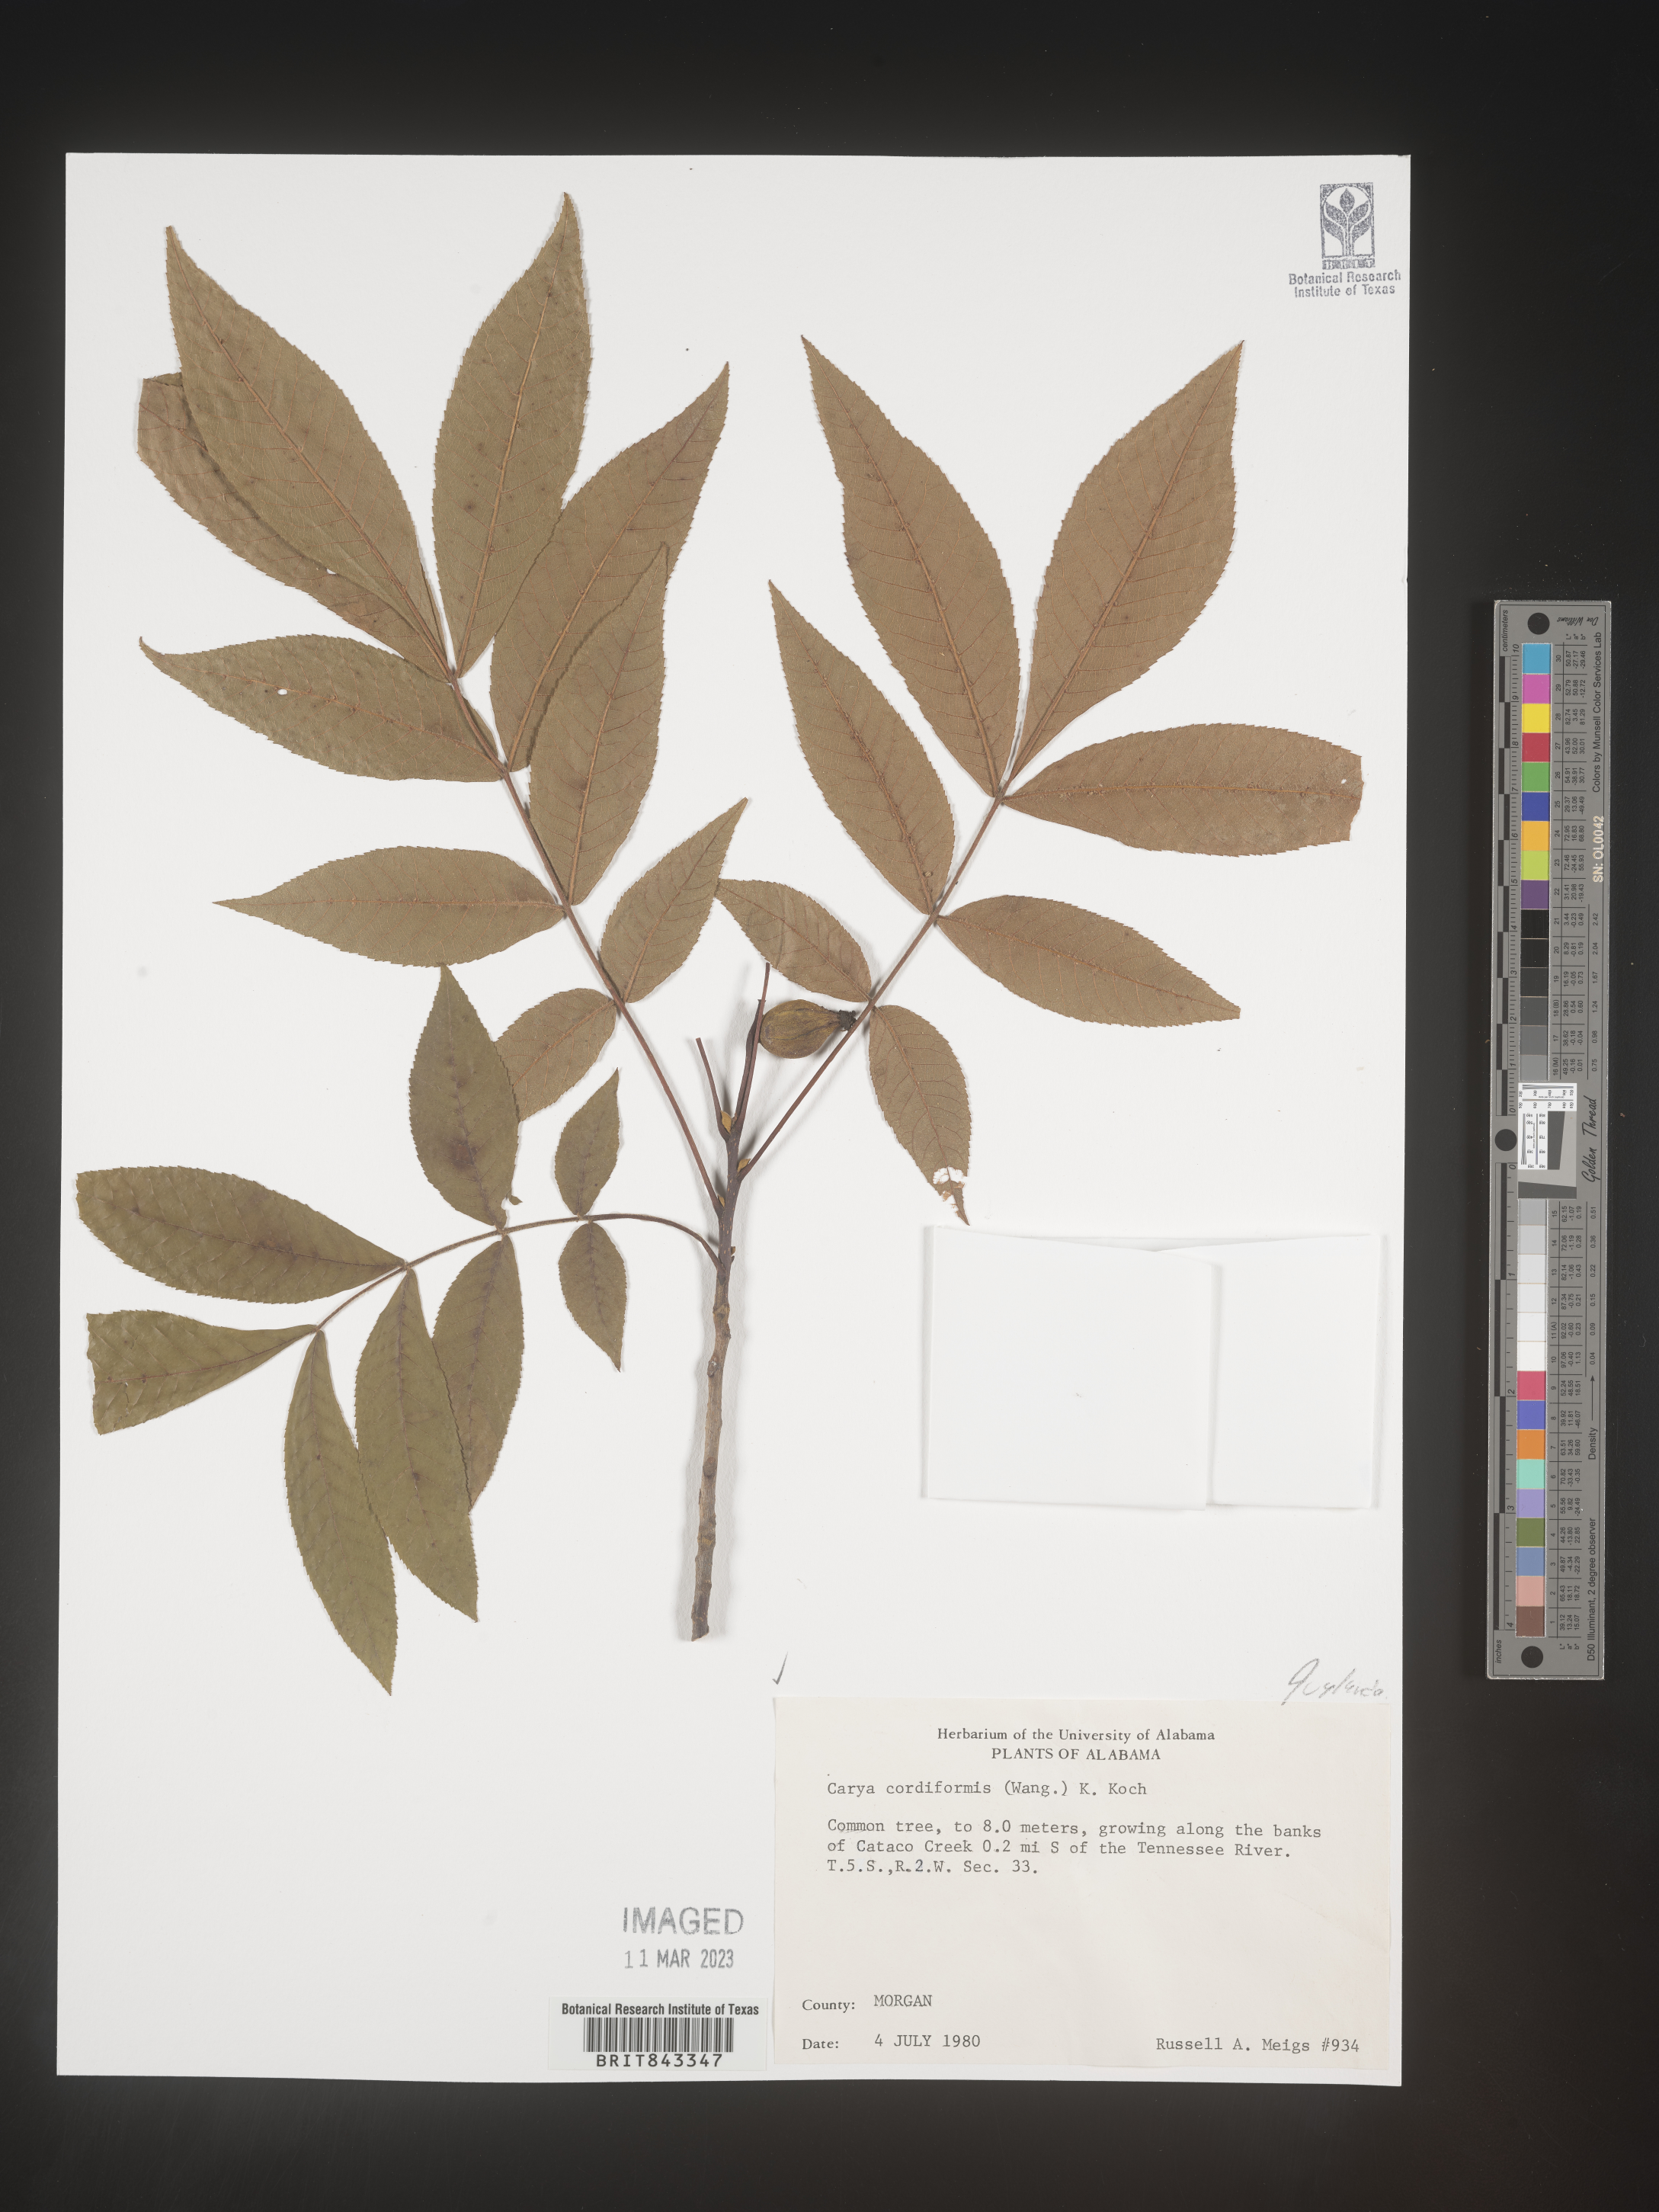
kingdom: Plantae
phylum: Tracheophyta
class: Magnoliopsida
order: Fagales
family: Juglandaceae
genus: Carya
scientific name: Carya cordiformis
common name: Bitternut hickory
